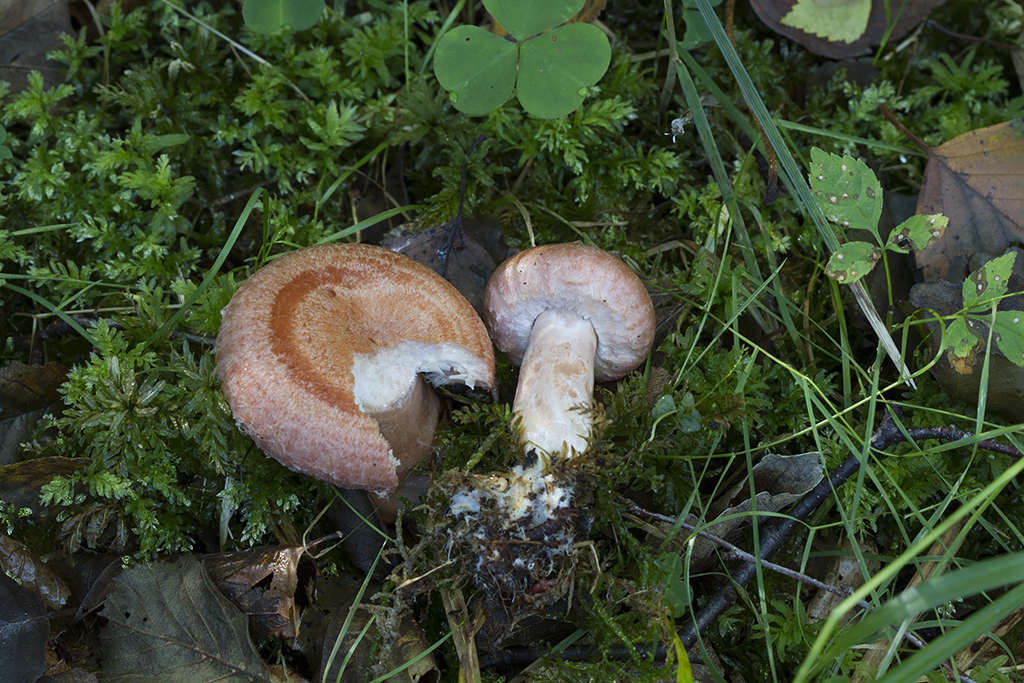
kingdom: Fungi
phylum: Basidiomycota
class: Agaricomycetes
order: Russulales
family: Russulaceae
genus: Lactarius
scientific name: Lactarius torminosus
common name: skægget mælkehat
